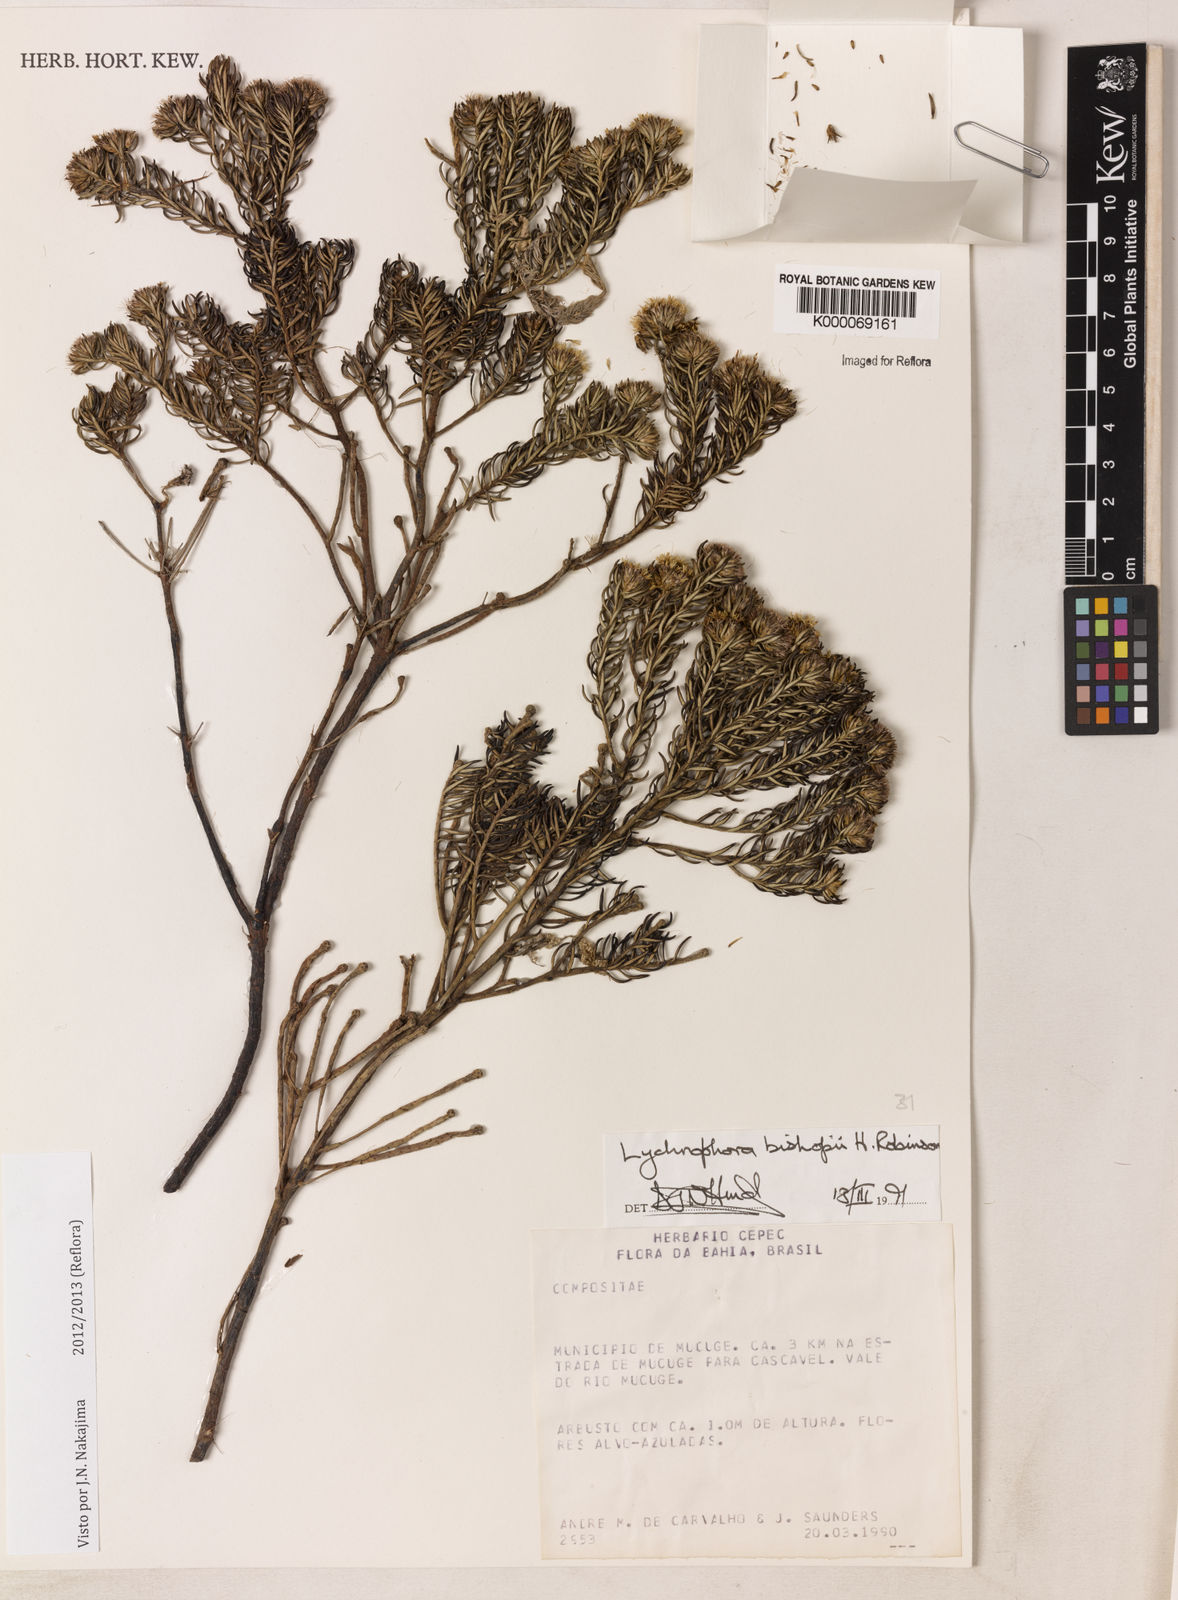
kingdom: Plantae
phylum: Tracheophyta
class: Magnoliopsida
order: Asterales
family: Asteraceae
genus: Lychnophorella
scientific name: Lychnophorella bishopii
